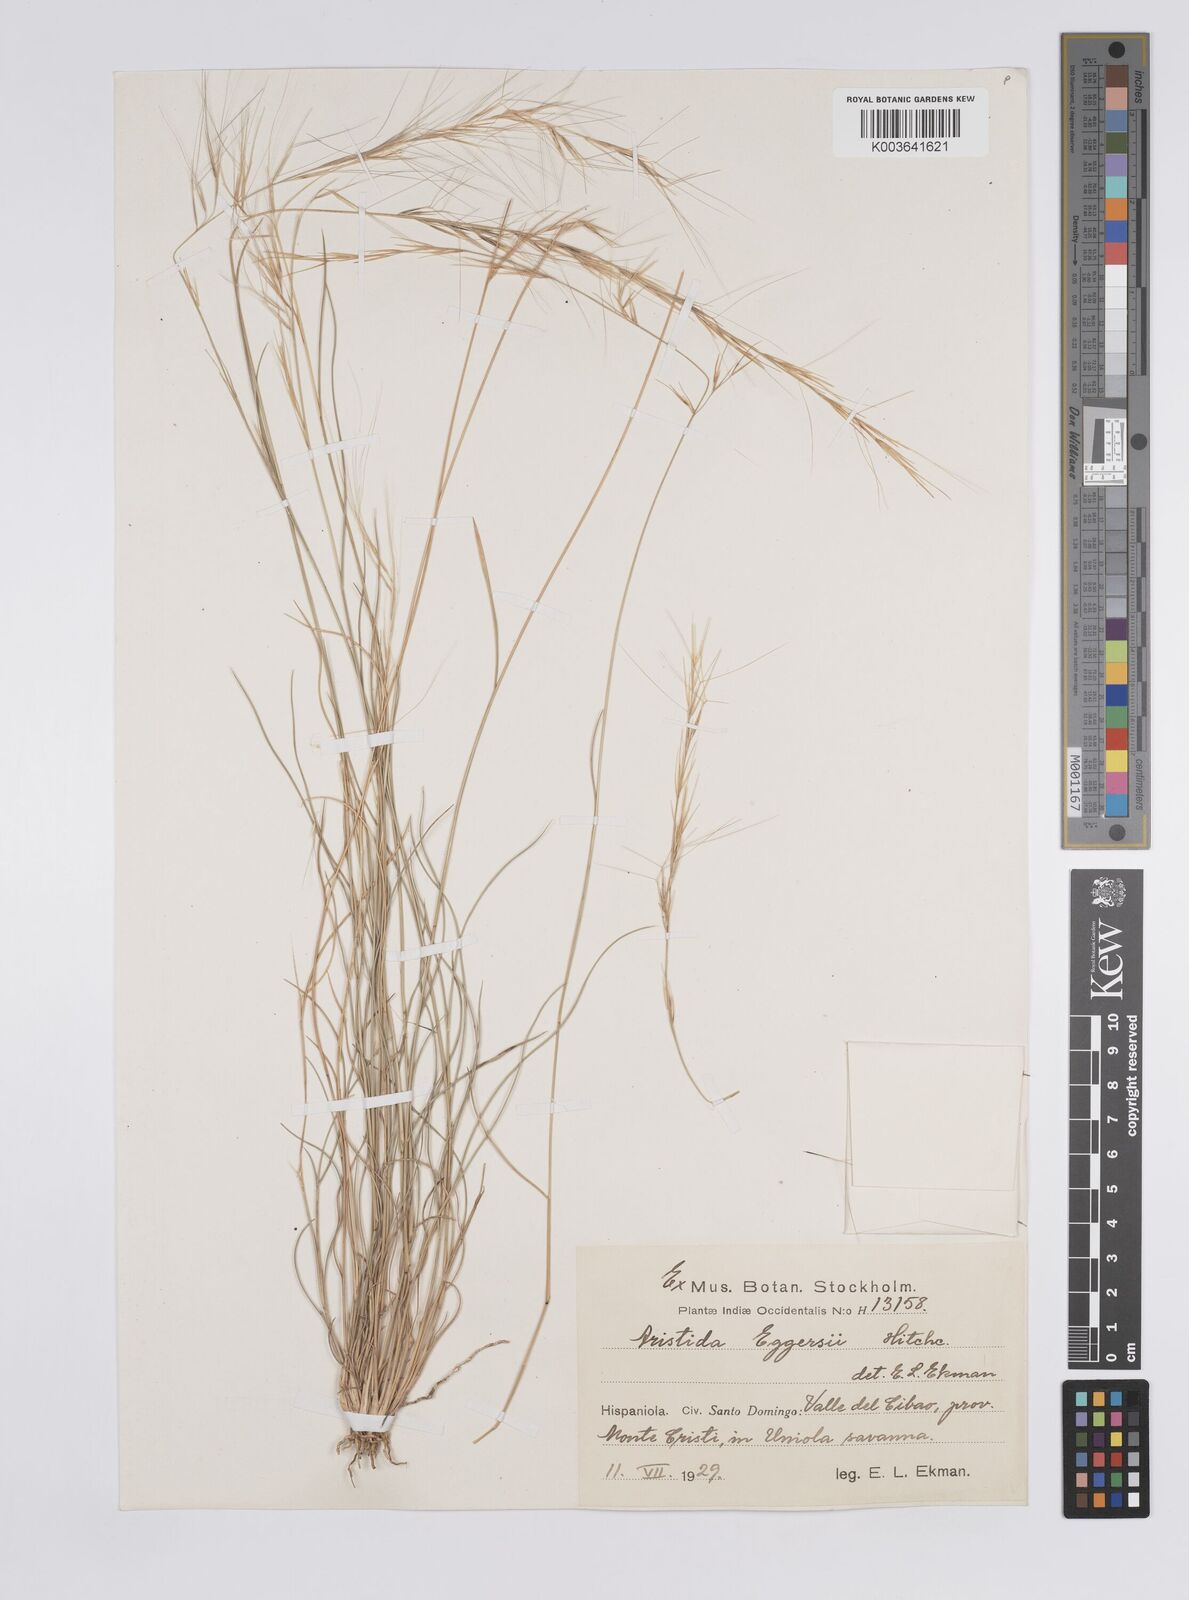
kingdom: Plantae
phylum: Tracheophyta
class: Liliopsida
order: Poales
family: Poaceae
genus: Aristida
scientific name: Aristida purpurea
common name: Purple threeawn
